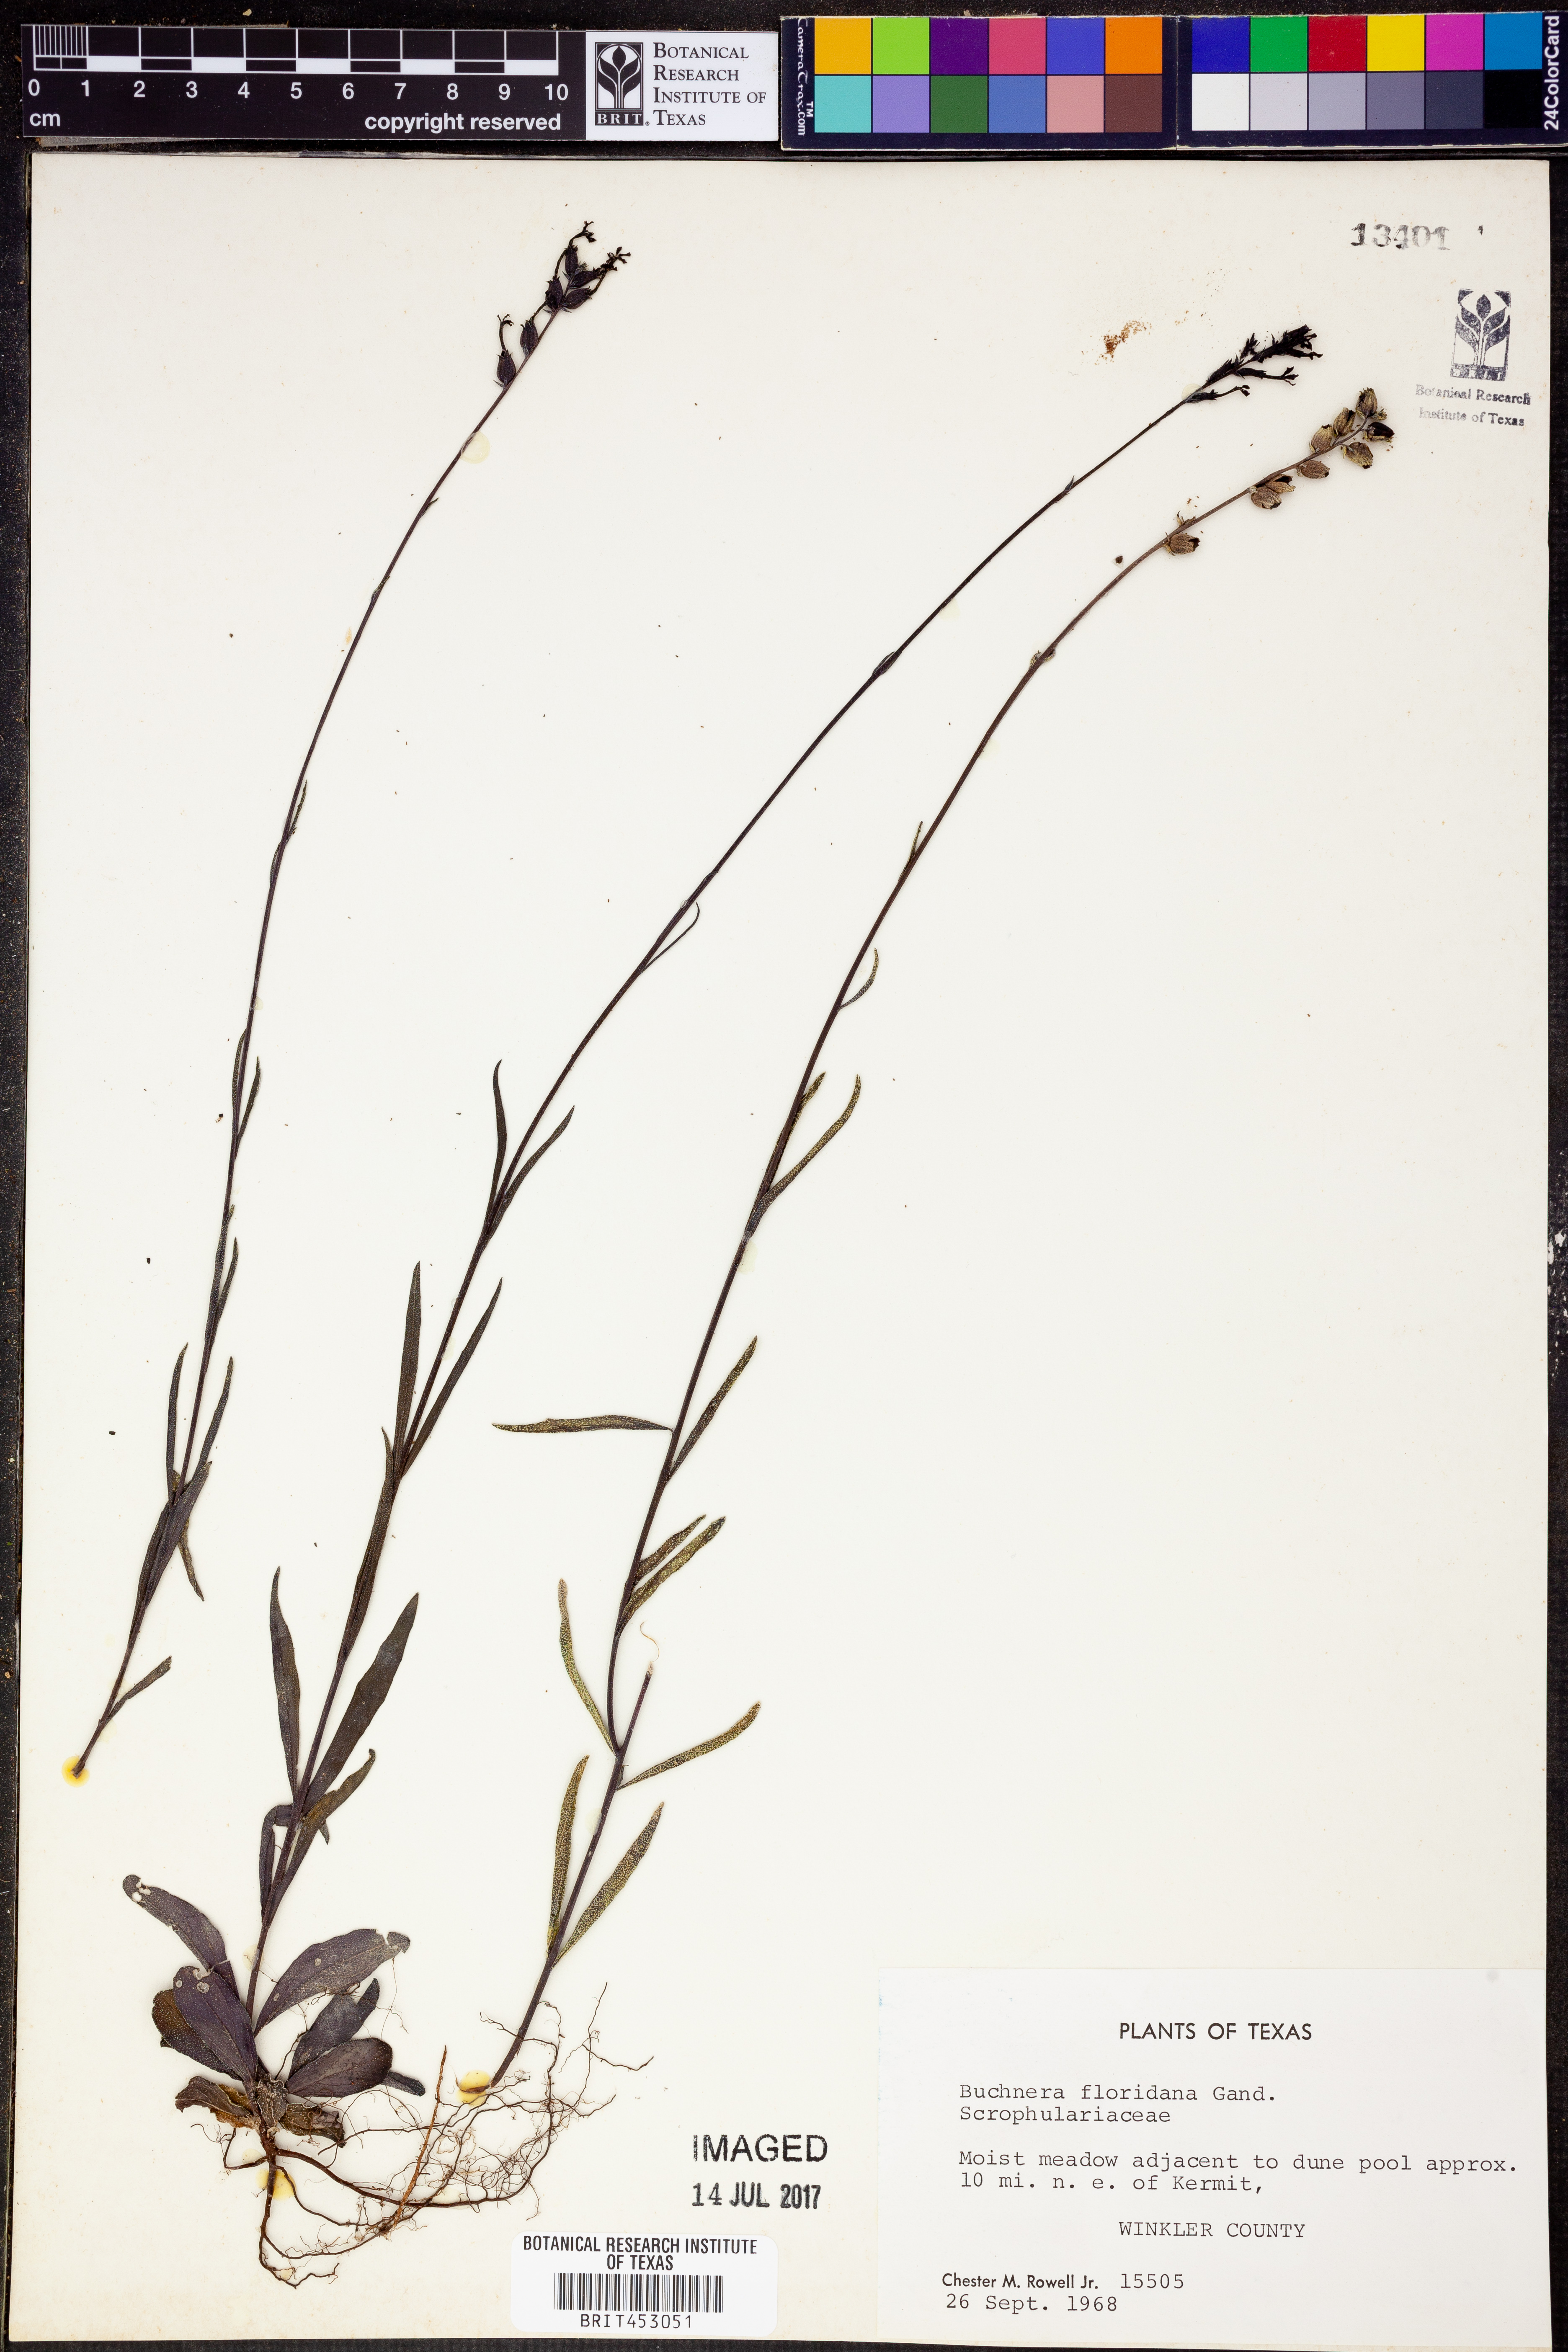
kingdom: Plantae
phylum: Tracheophyta
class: Magnoliopsida
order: Lamiales
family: Orobanchaceae
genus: Buchnera
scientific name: Buchnera floridana
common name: Florida bluehearts
